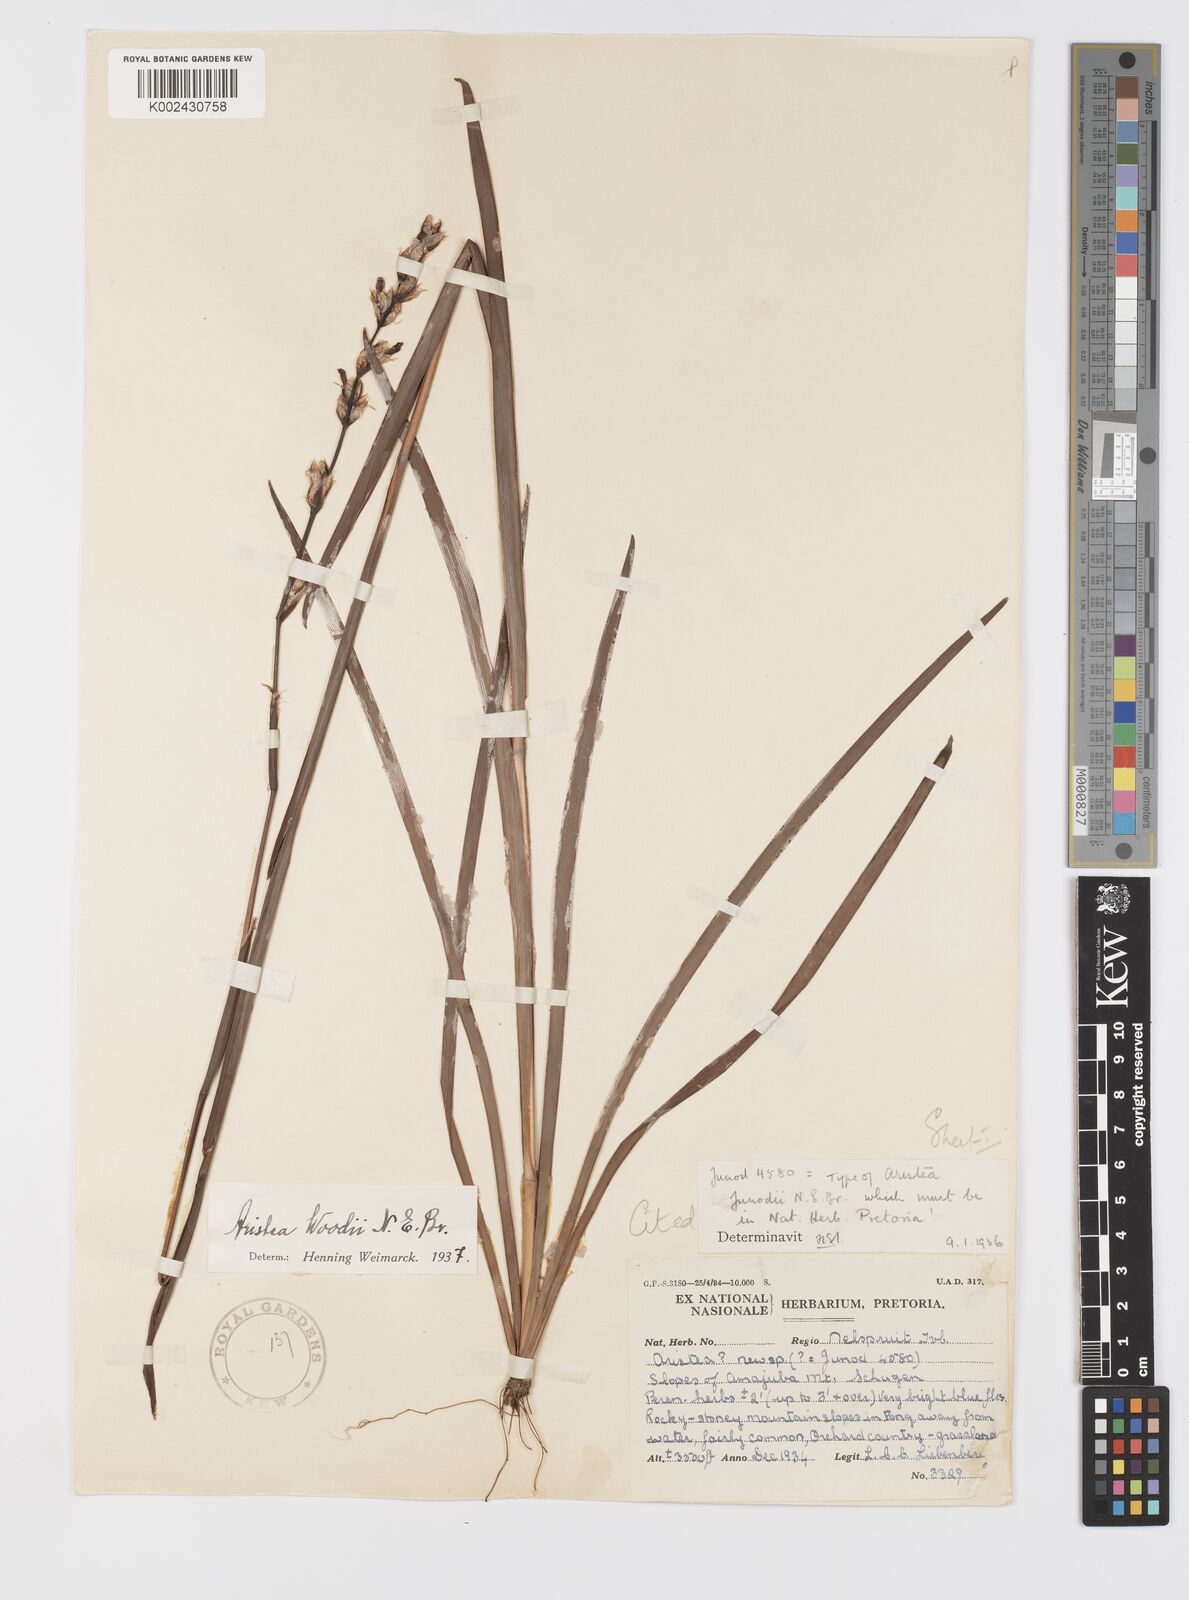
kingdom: Plantae
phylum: Tracheophyta
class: Liliopsida
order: Asparagales
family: Iridaceae
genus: Aristea
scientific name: Aristea torulosa
